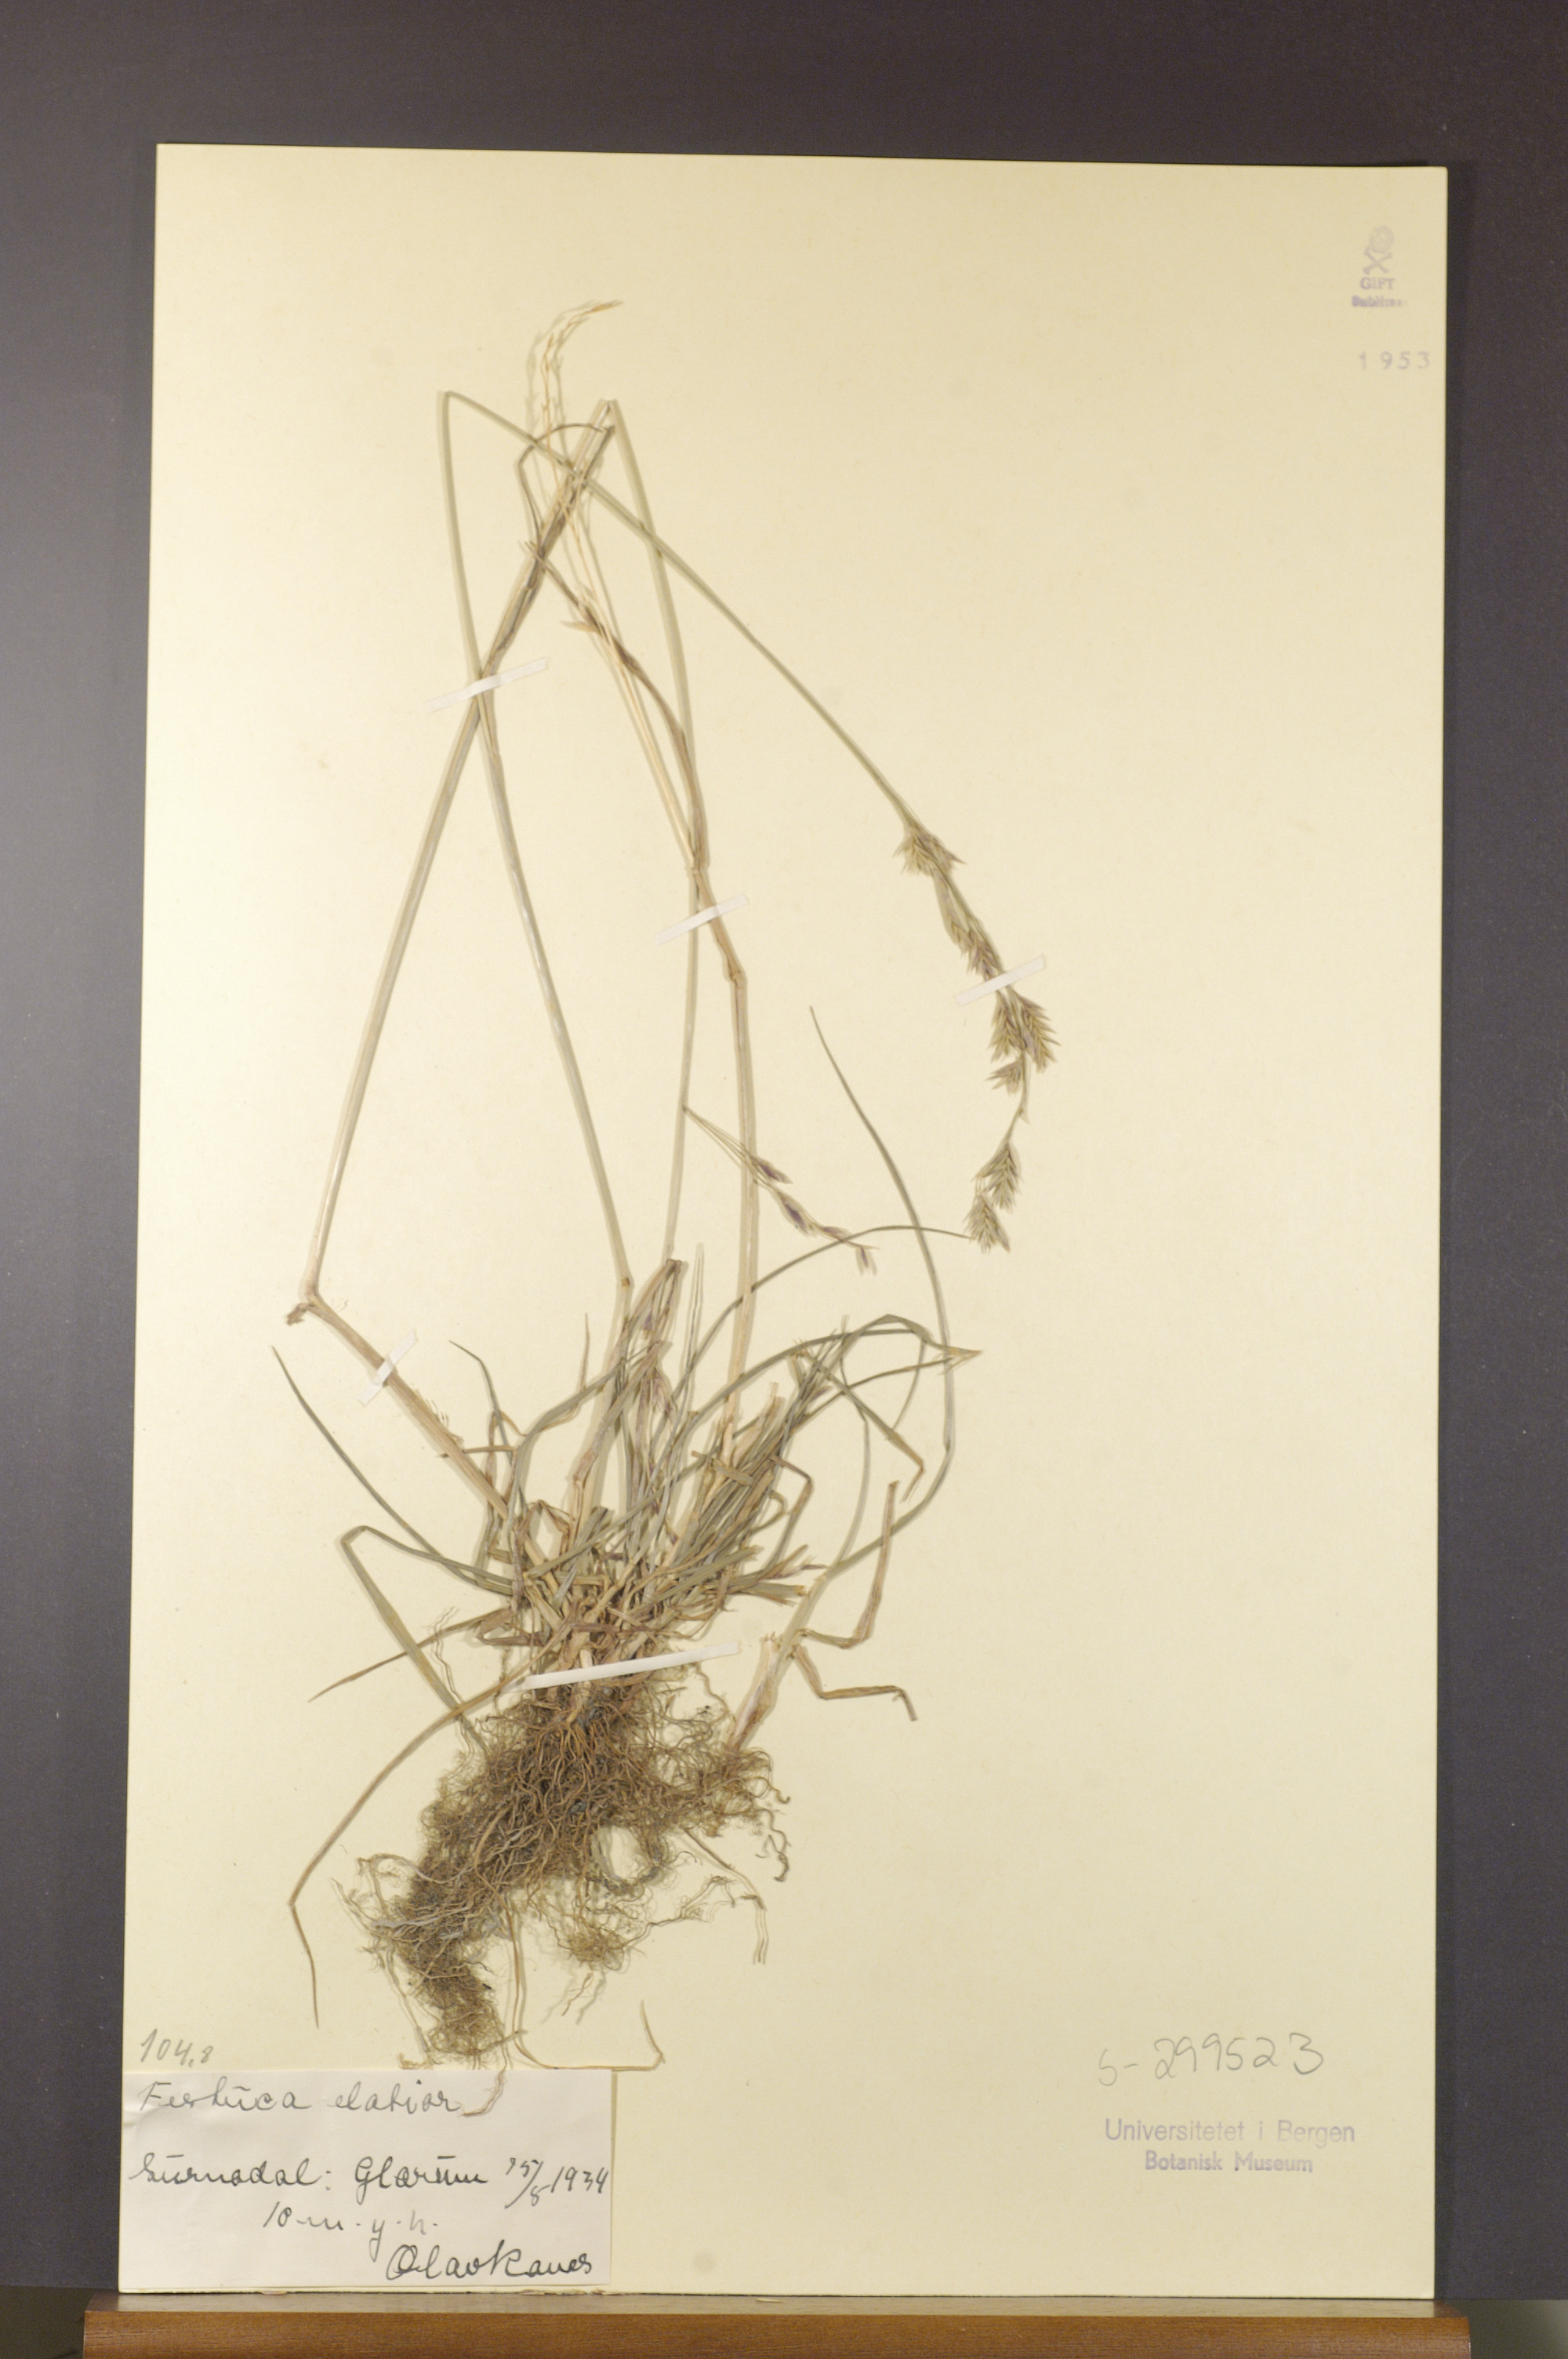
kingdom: Plantae
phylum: Tracheophyta
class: Liliopsida
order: Poales
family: Poaceae
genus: Lolium
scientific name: Lolium arundinaceum
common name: Reed fescue
